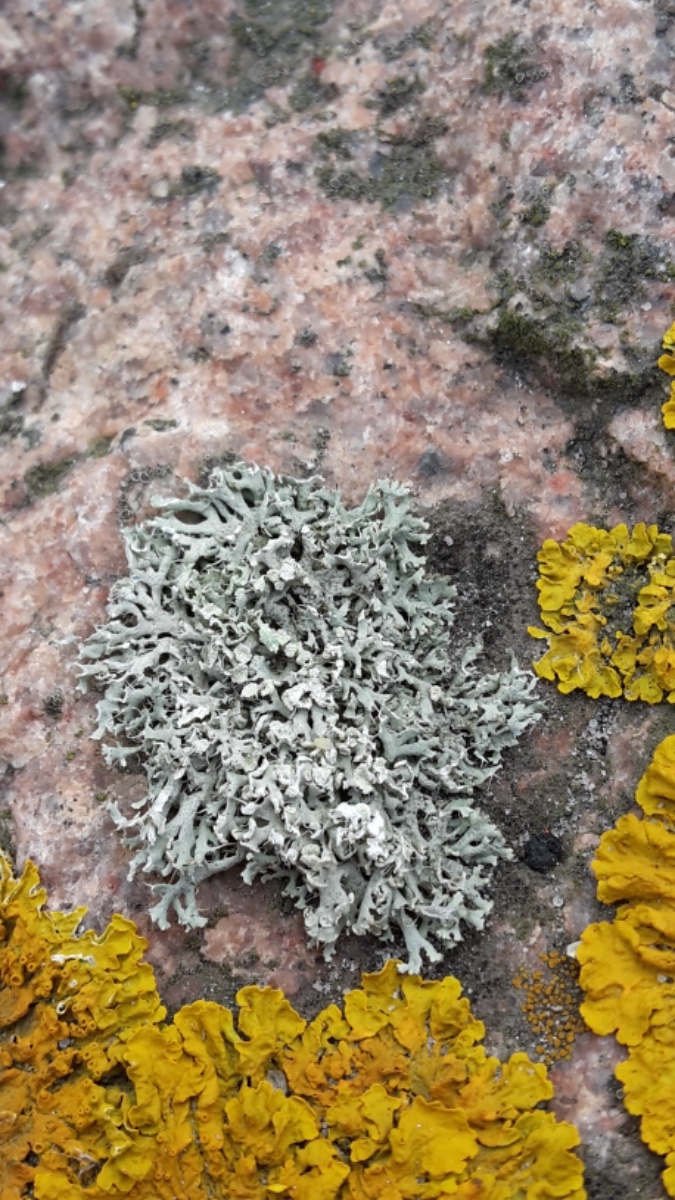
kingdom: Fungi
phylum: Ascomycota
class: Lecanoromycetes
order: Caliciales
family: Physciaceae
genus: Physcia
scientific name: Physcia adscendens
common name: hætte-rosetlav
